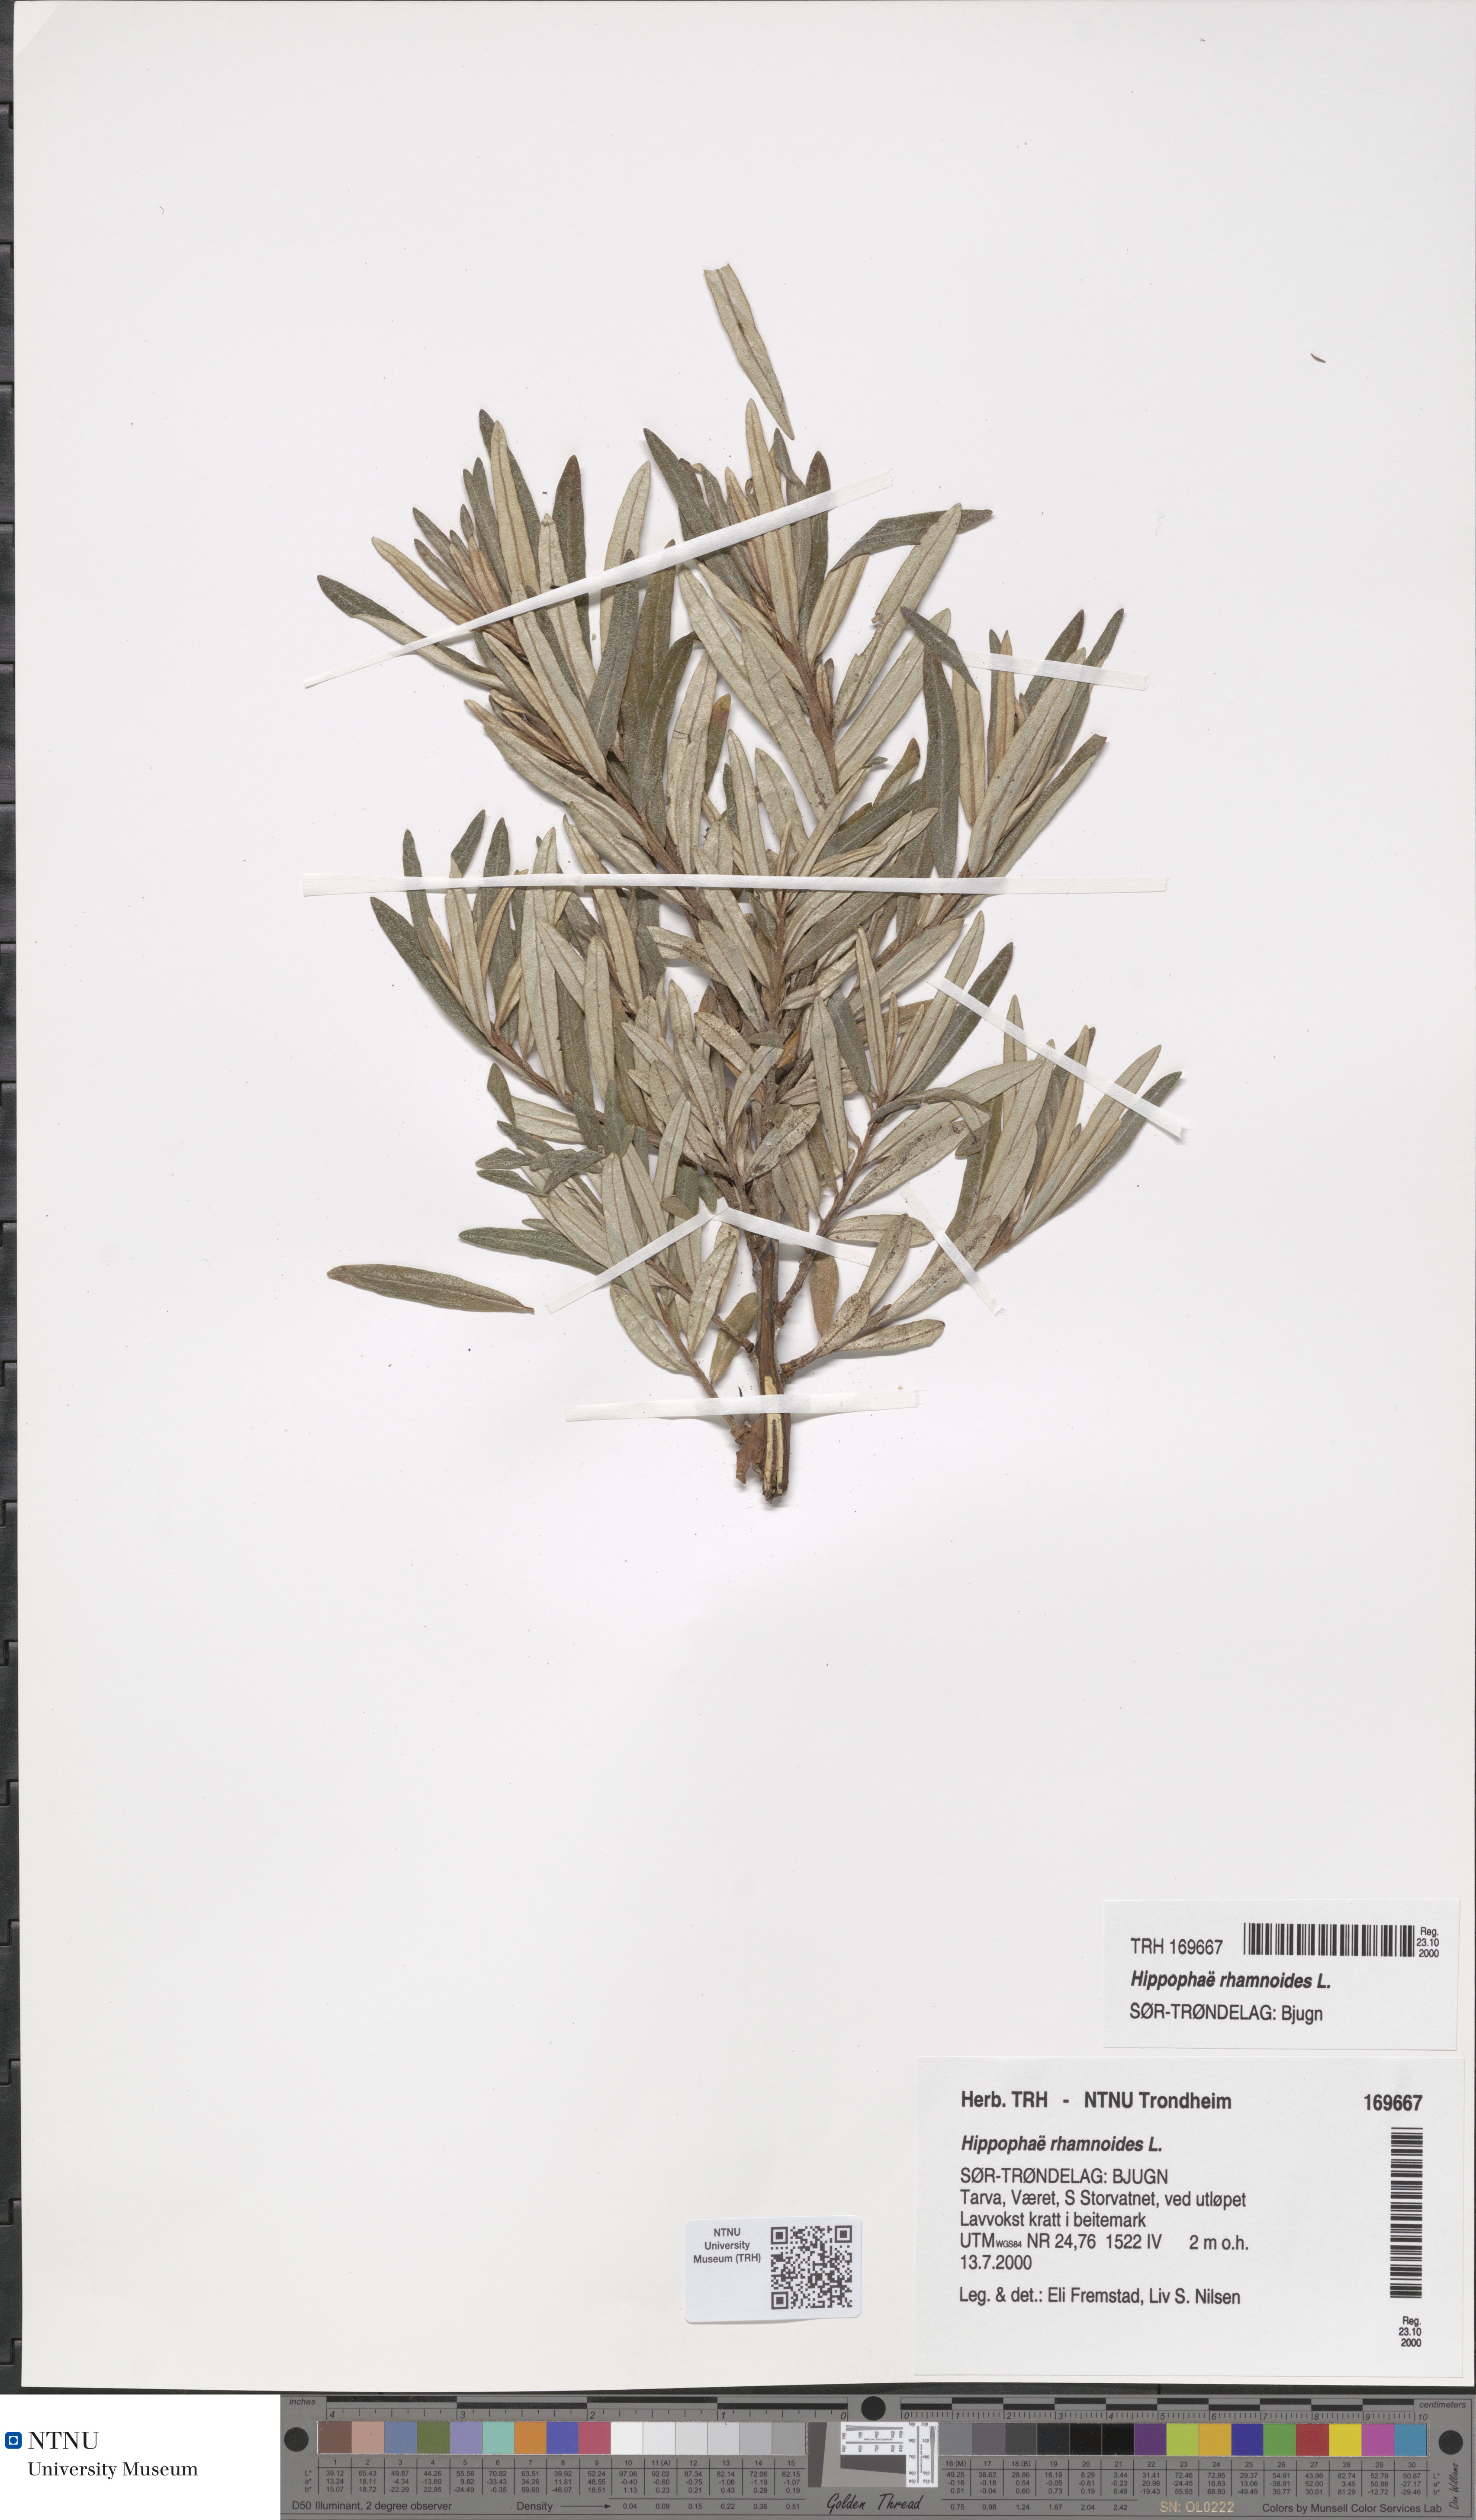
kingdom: Plantae
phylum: Tracheophyta
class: Magnoliopsida
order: Rosales
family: Elaeagnaceae
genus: Hippophae
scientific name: Hippophae rhamnoides
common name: Sea-buckthorn
